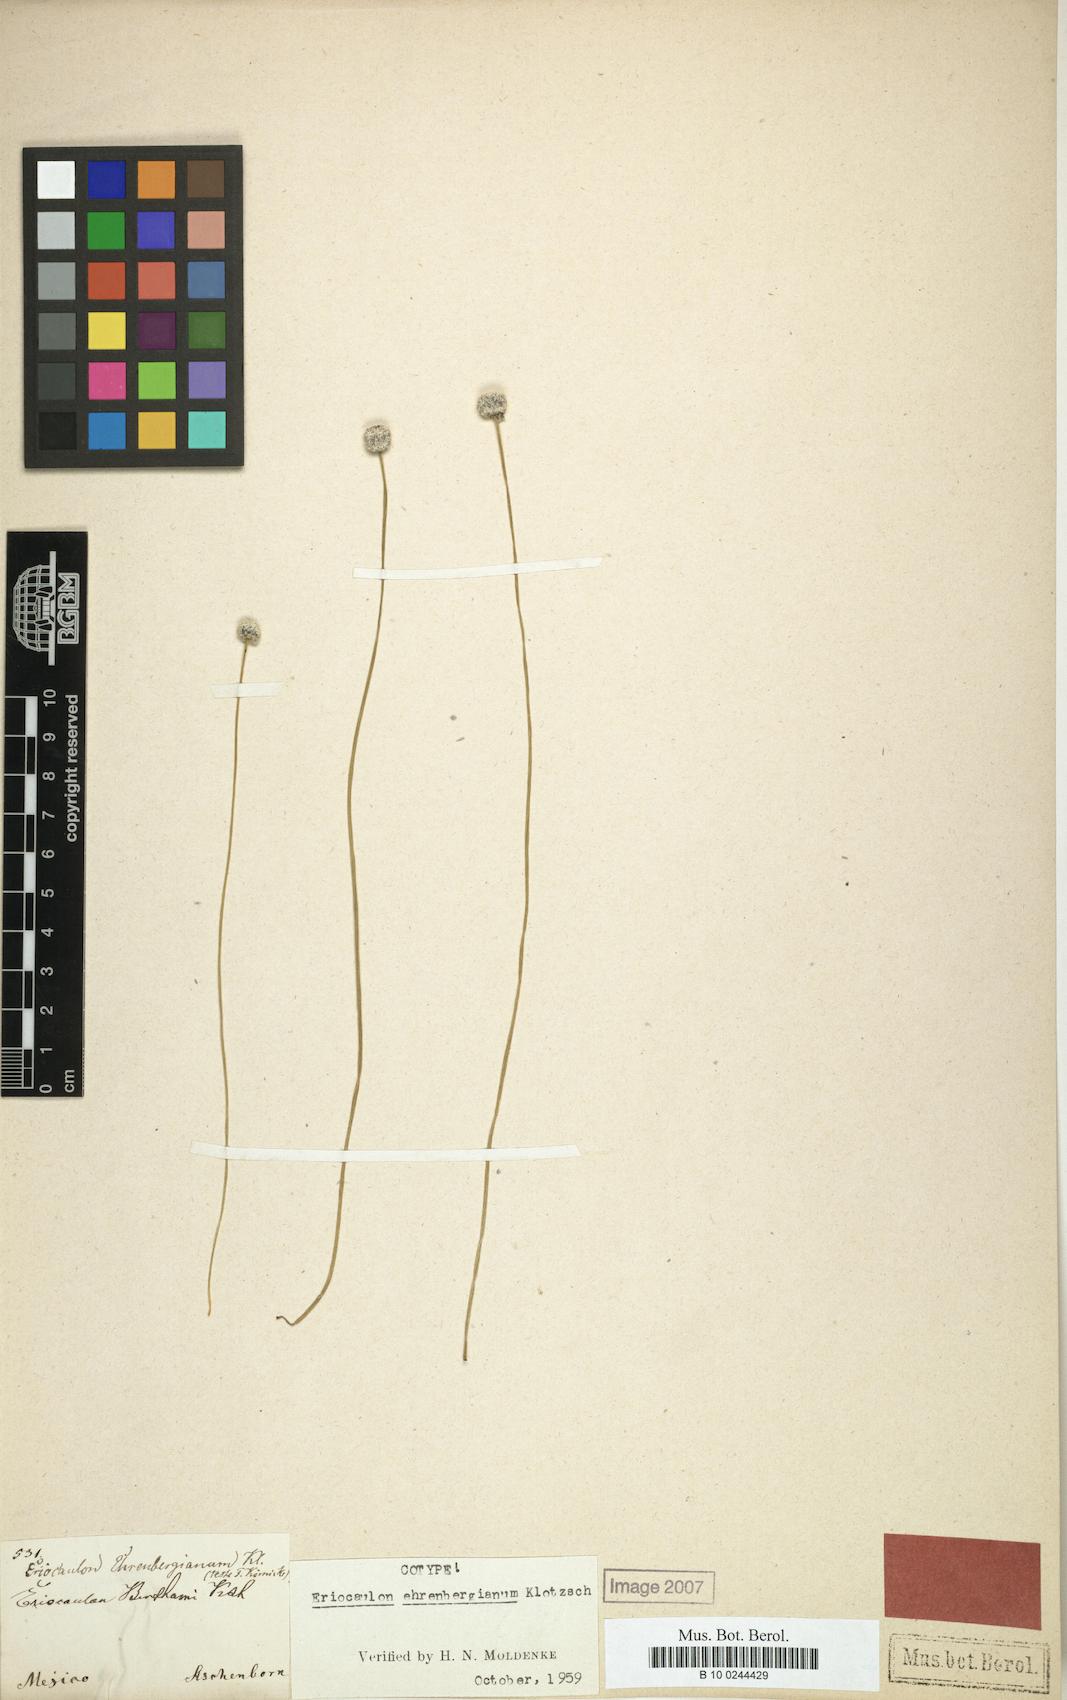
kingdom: Plantae
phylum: Tracheophyta
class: Liliopsida
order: Poales
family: Eriocaulaceae
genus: Eriocaulon
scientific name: Eriocaulon ehrenbergianum
